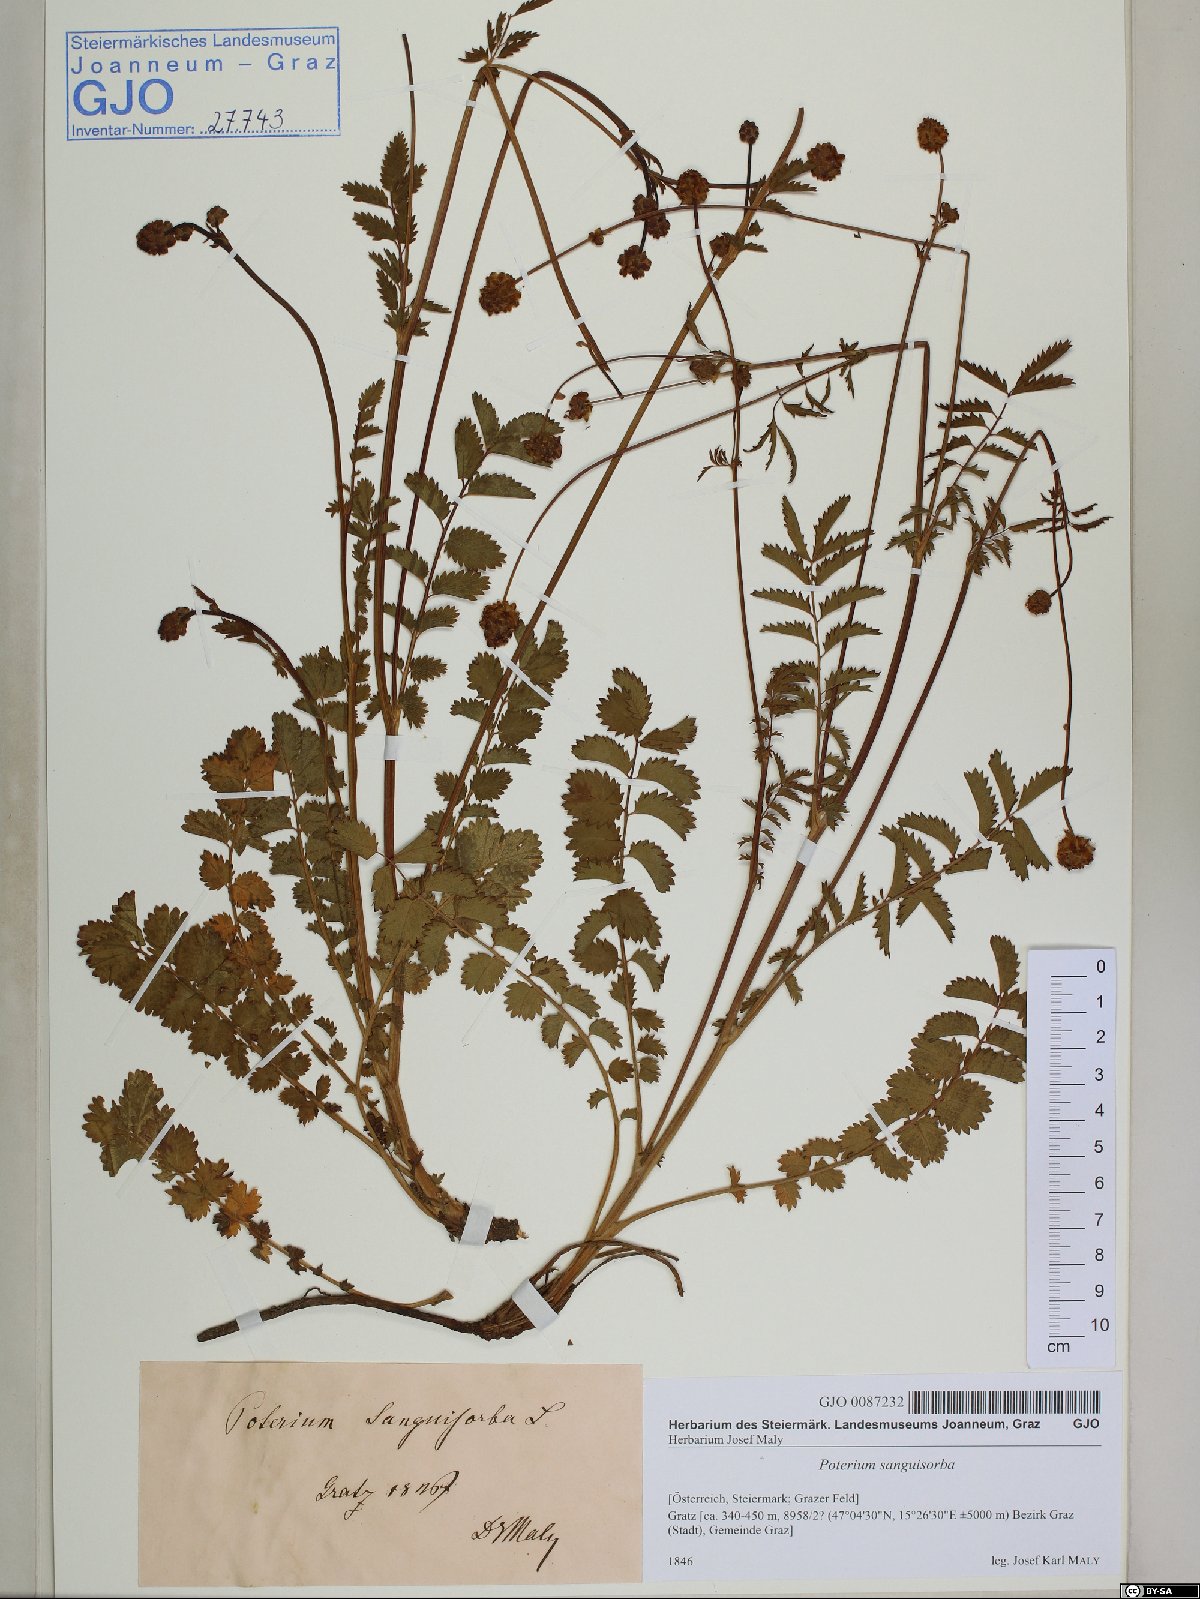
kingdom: Plantae
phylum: Tracheophyta
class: Magnoliopsida
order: Rosales
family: Rosaceae
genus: Poterium
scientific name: Poterium sanguisorba
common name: Salad burnet
